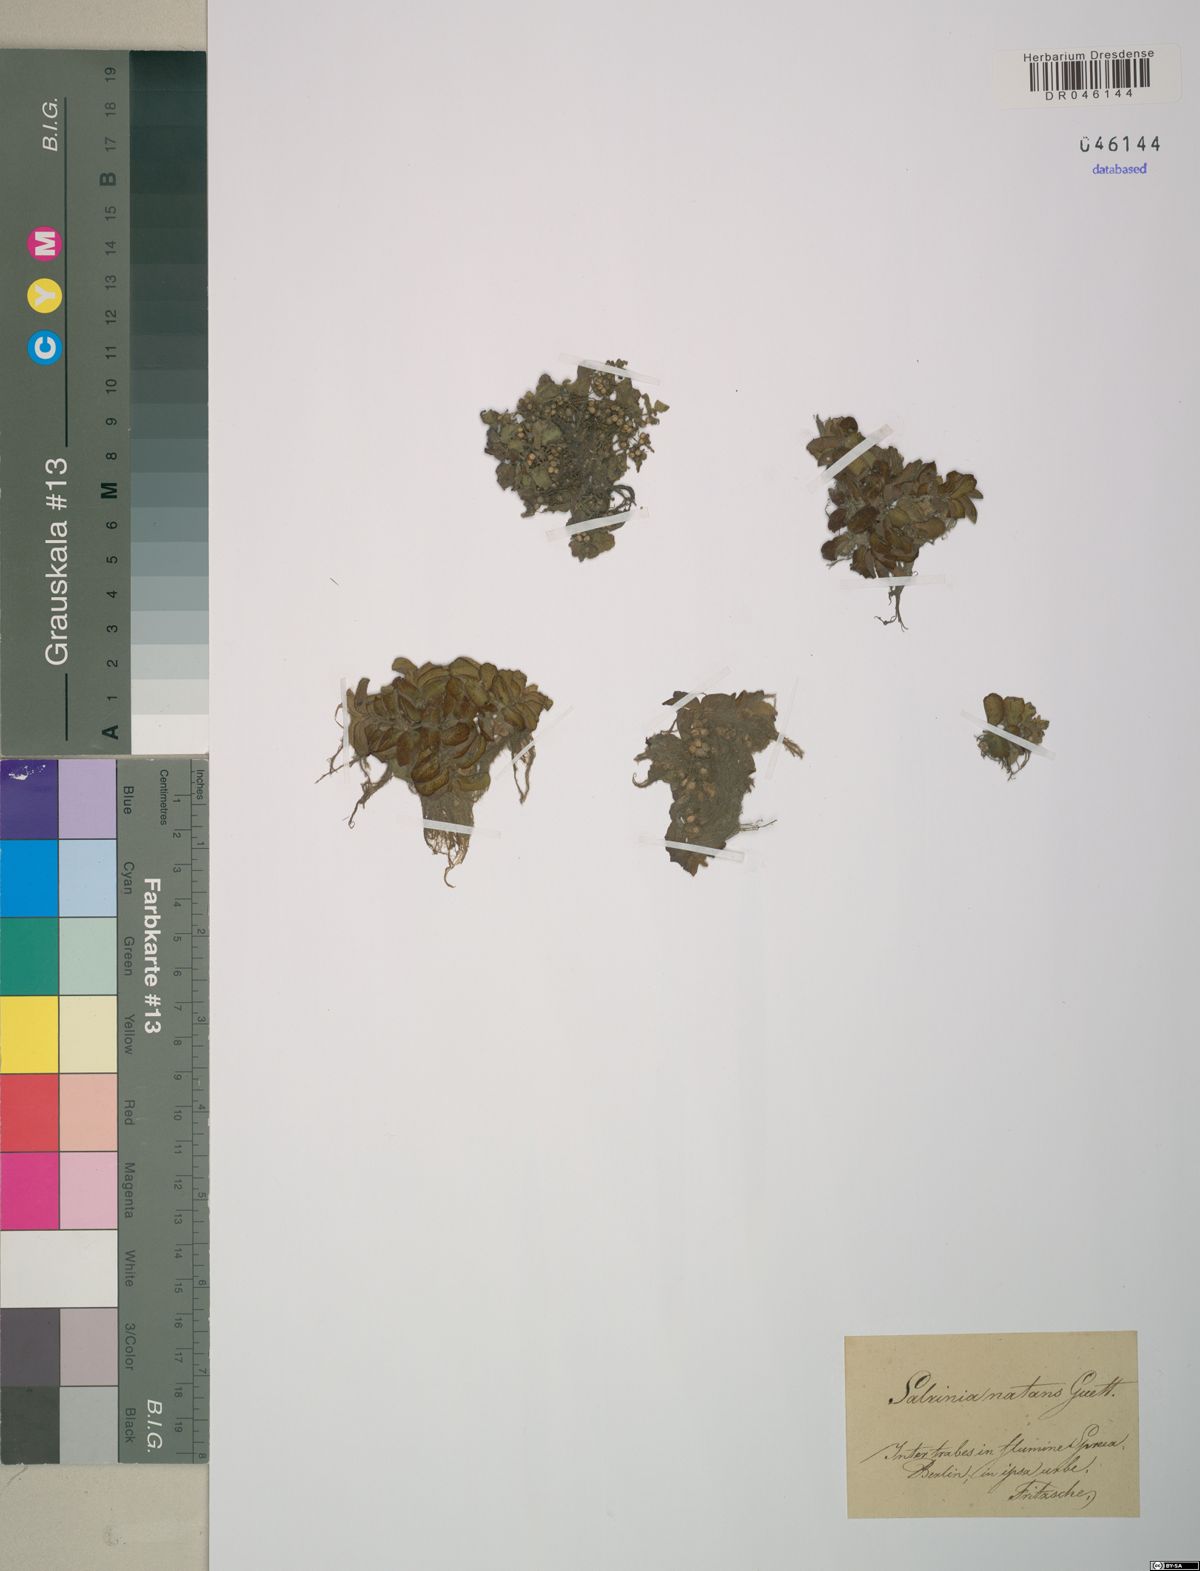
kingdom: Plantae
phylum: Tracheophyta
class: Polypodiopsida
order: Salviniales
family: Salviniaceae
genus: Salvinia
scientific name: Salvinia natans
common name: Floating fern
